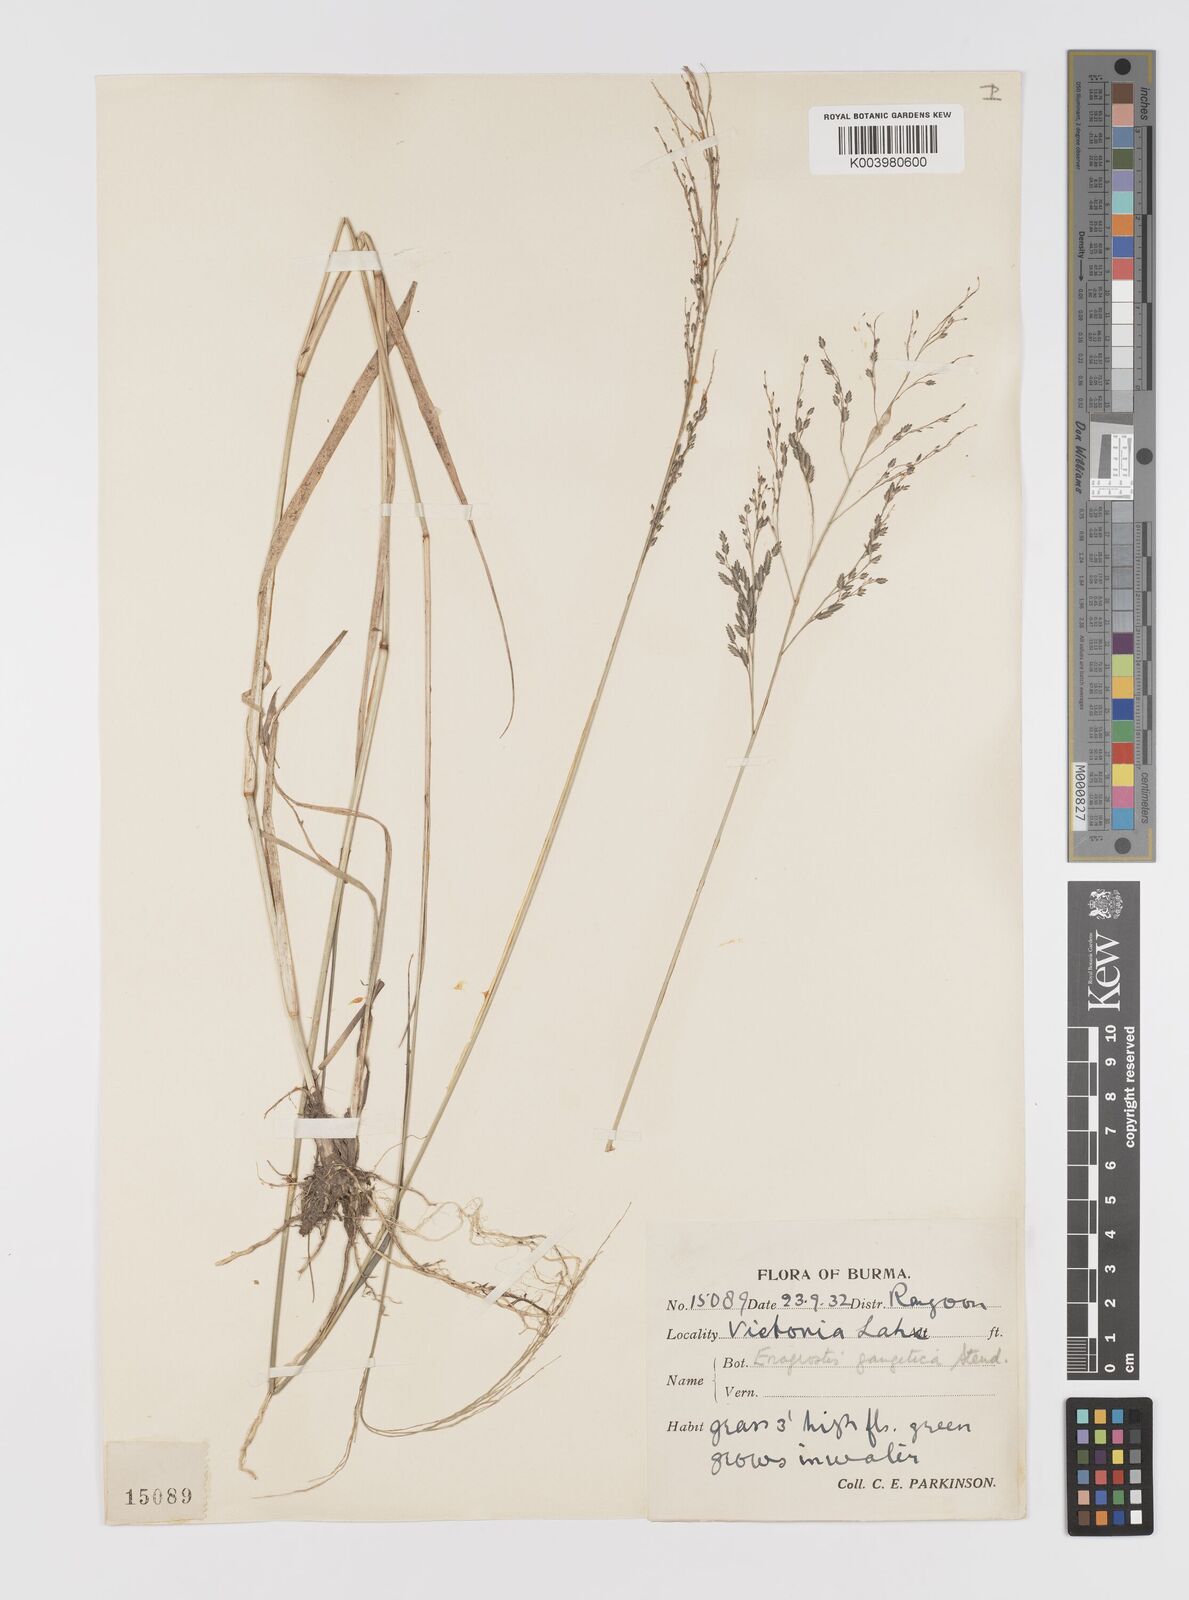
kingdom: Plantae
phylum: Tracheophyta
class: Liliopsida
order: Poales
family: Poaceae
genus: Eragrostis
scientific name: Eragrostis atrovirens
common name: Thalia lovegrass
